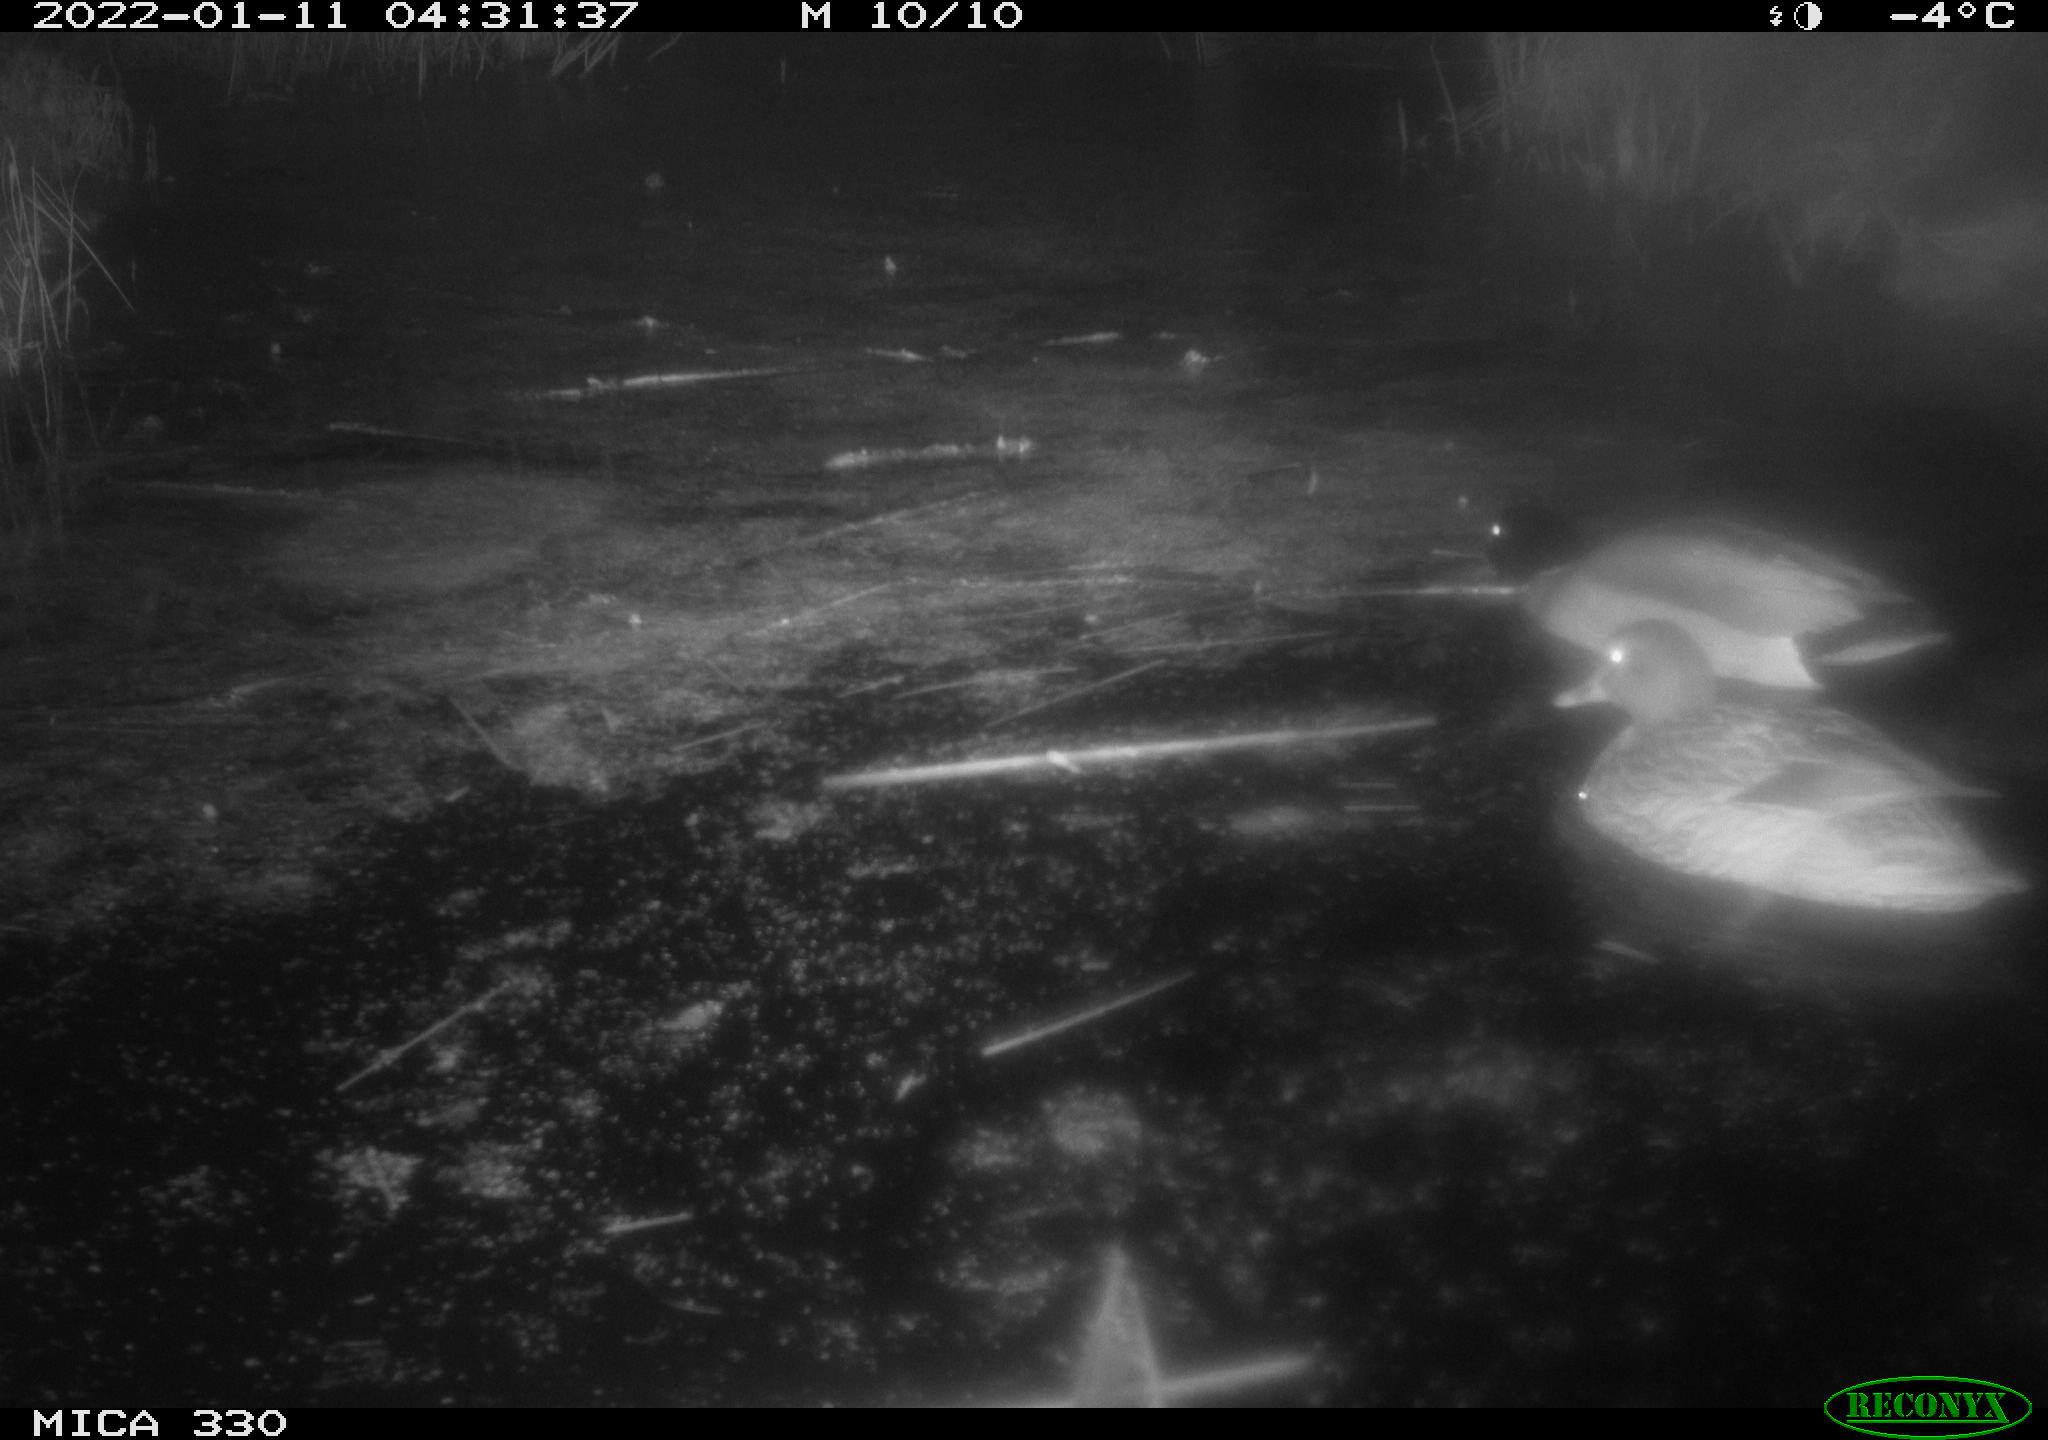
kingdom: Animalia
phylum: Chordata
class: Aves
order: Anseriformes
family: Anatidae
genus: Anas
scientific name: Anas platyrhynchos
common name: Mallard
